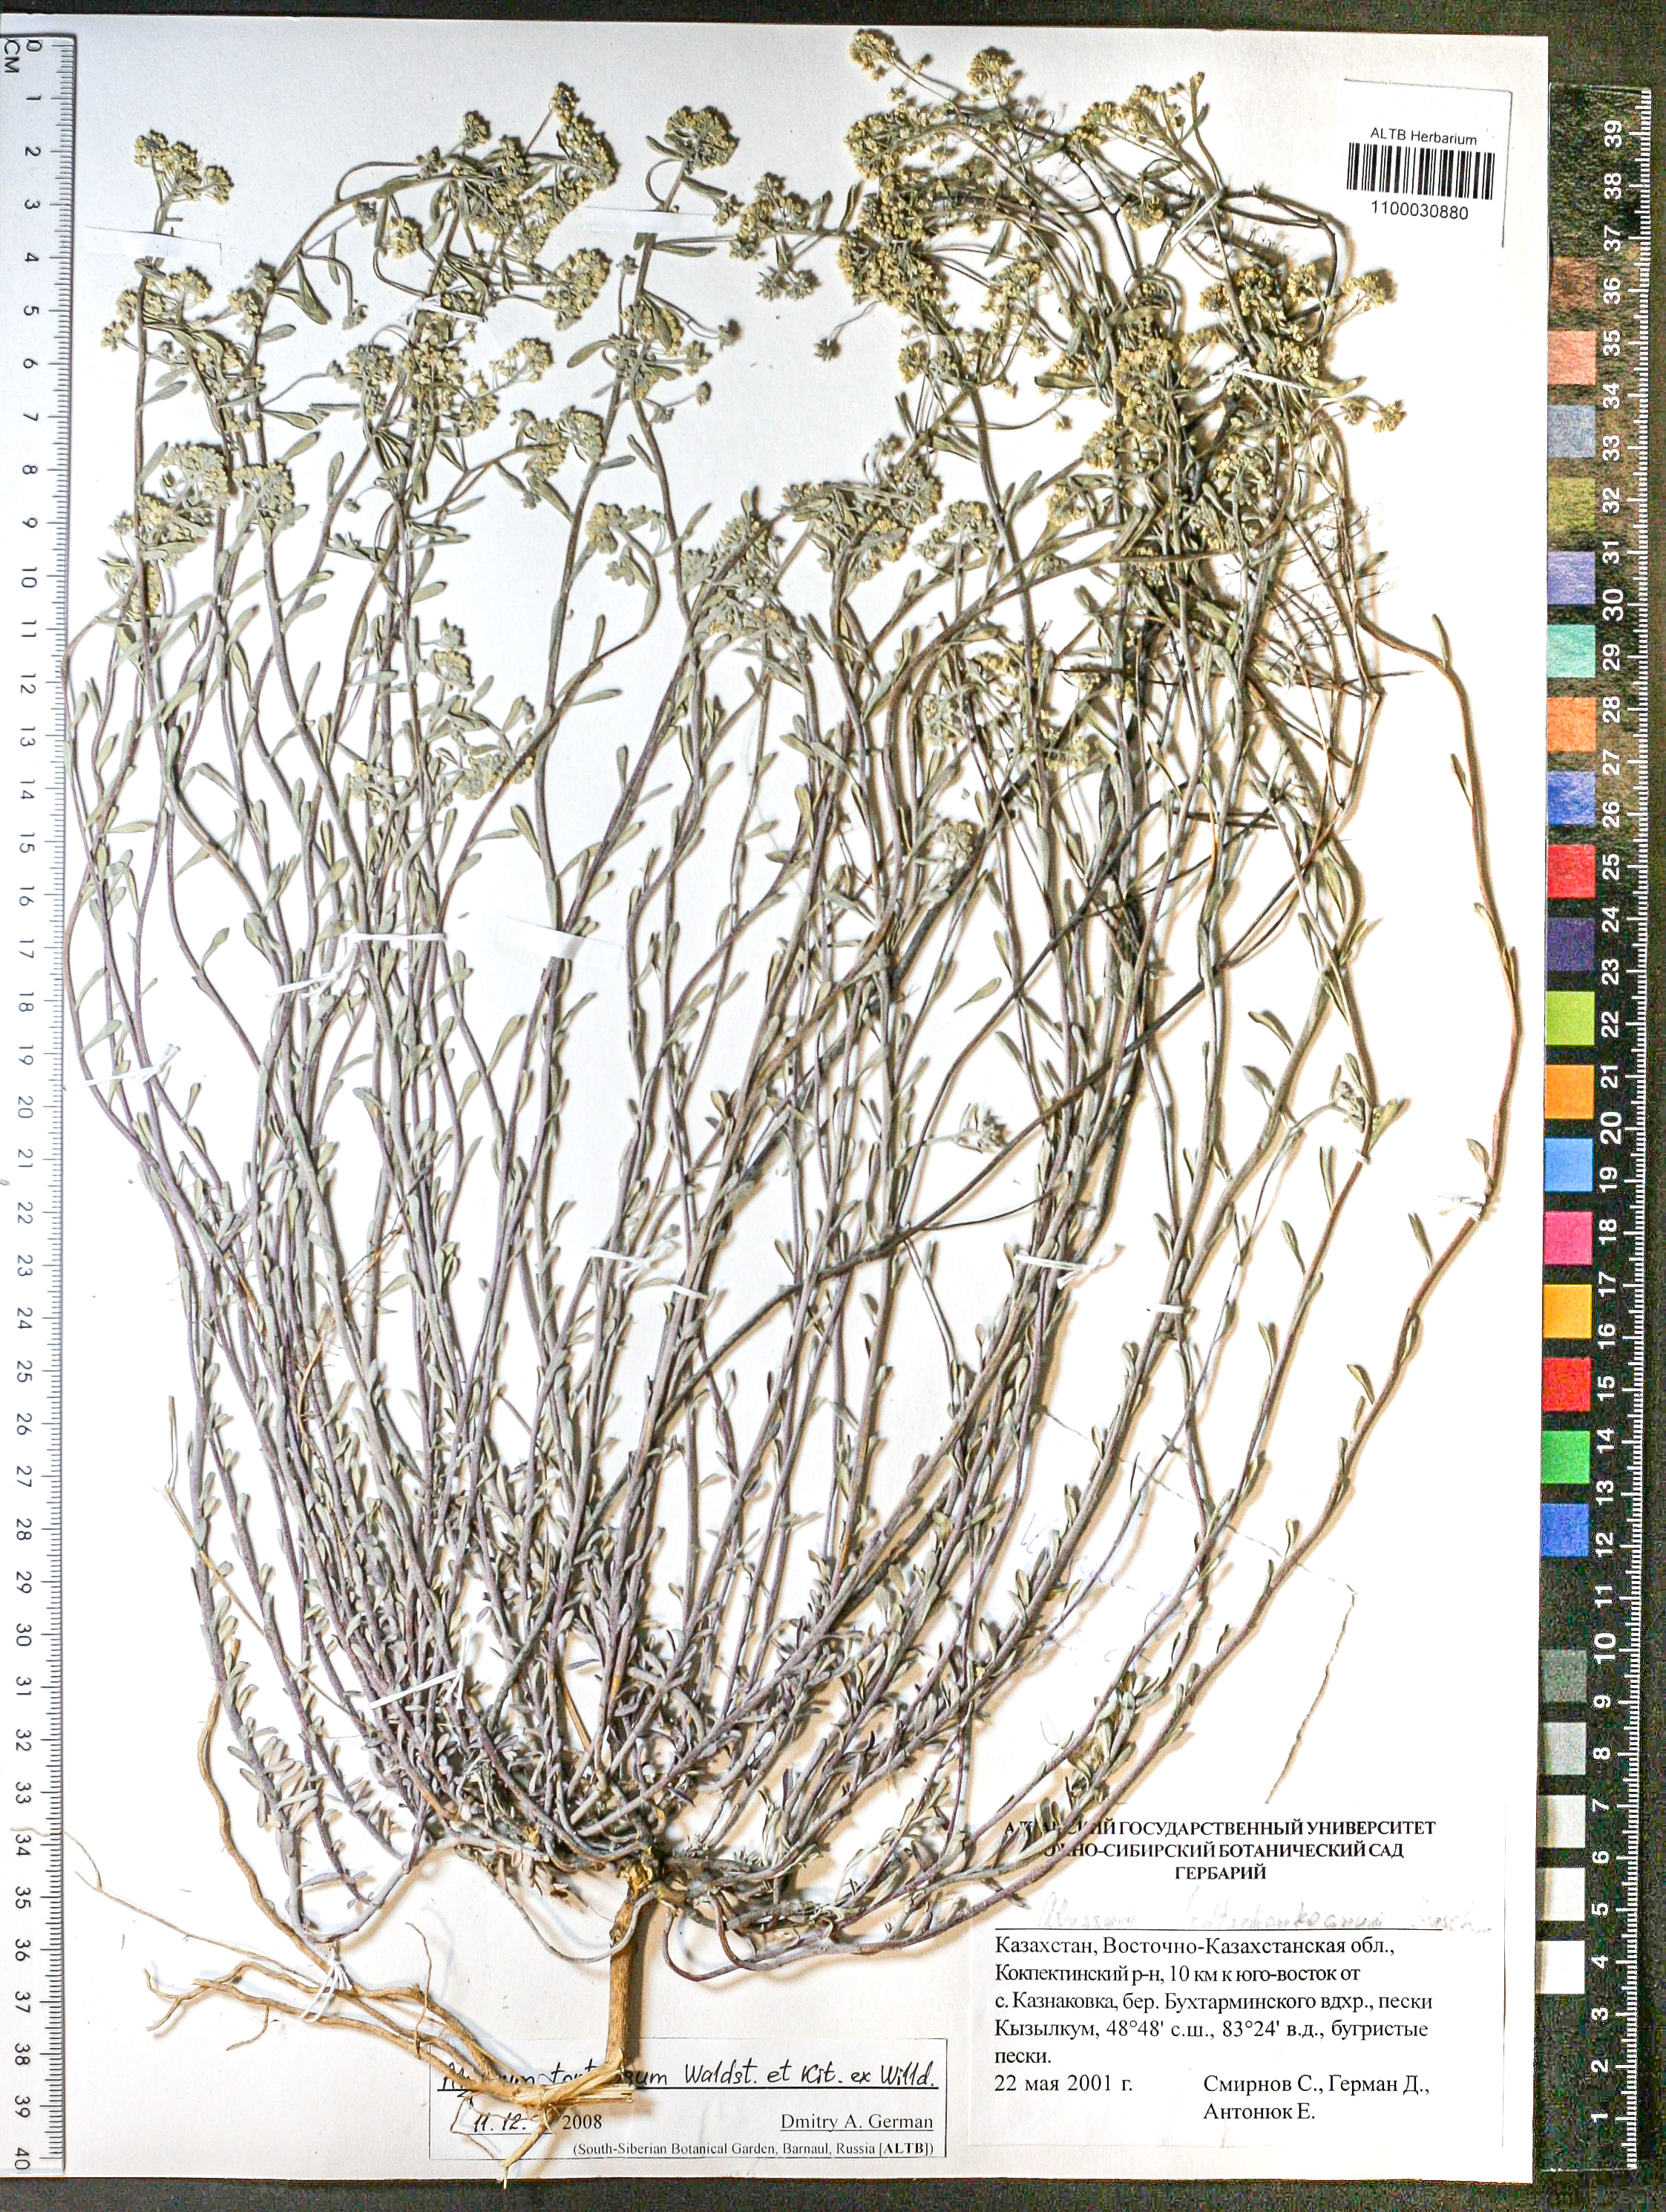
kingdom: Plantae
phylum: Tracheophyta
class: Magnoliopsida
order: Brassicales
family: Brassicaceae
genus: Odontarrhena
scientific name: Odontarrhena alpestris
